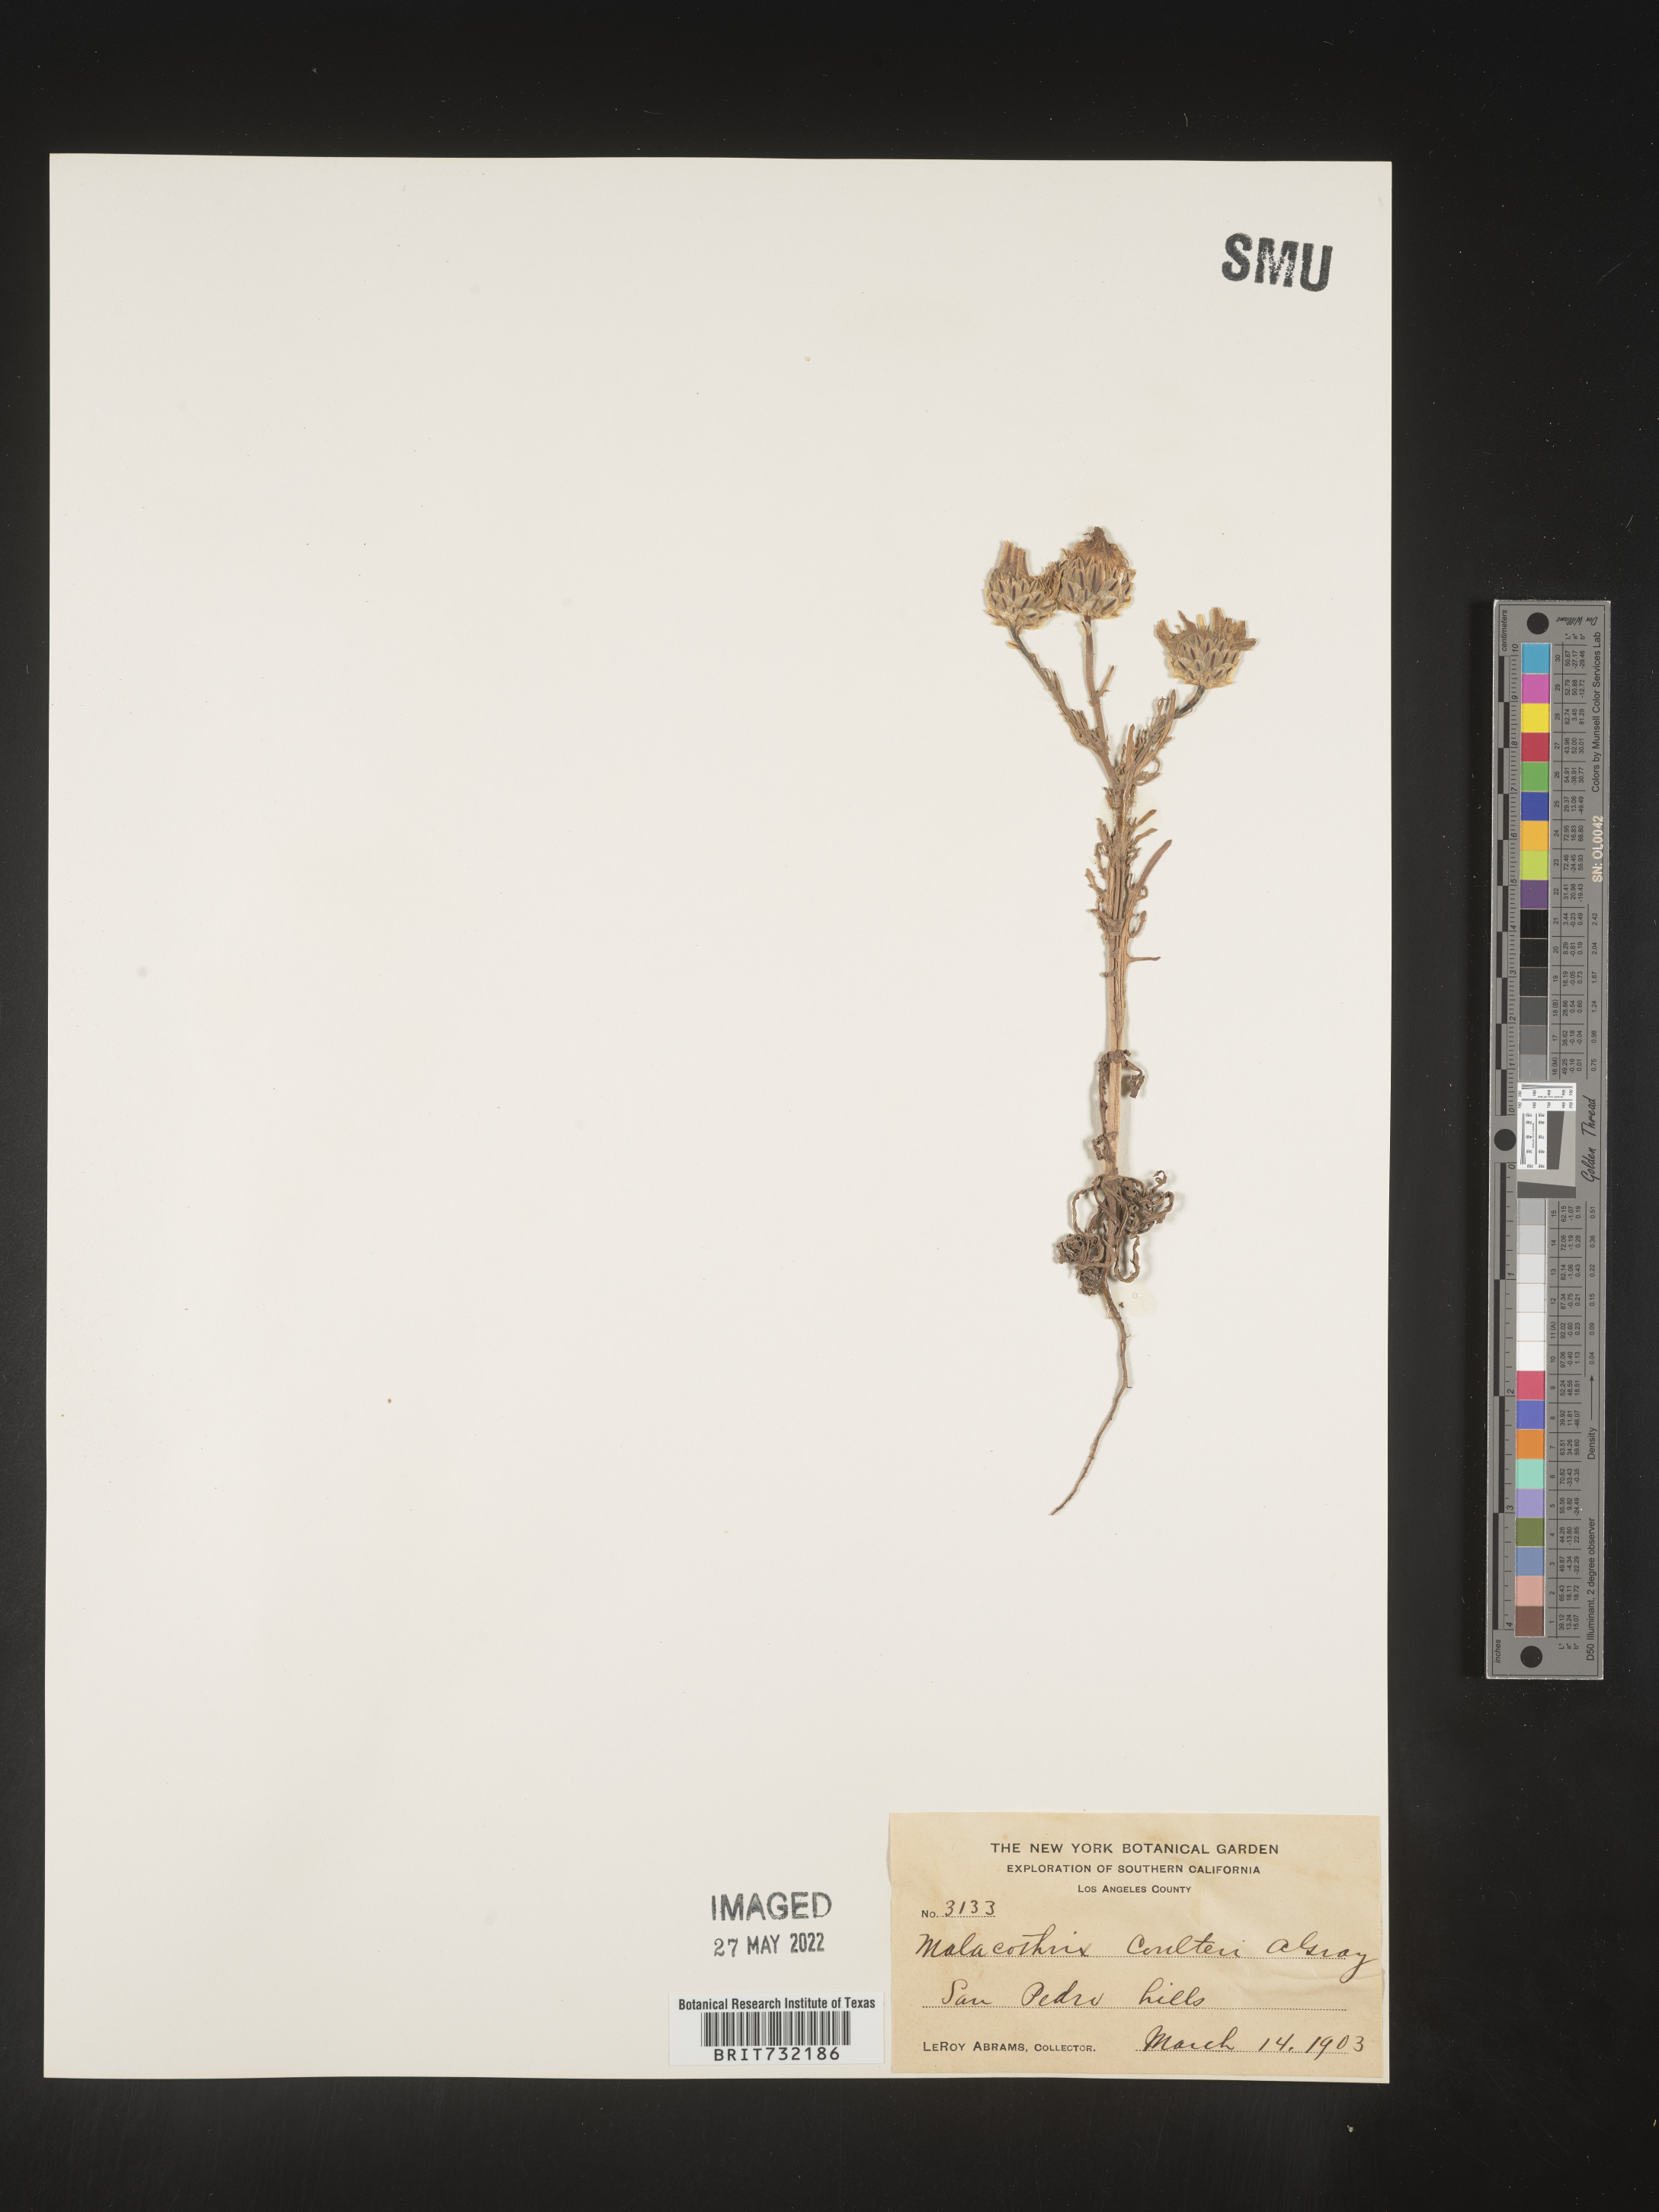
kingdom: Plantae
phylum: Tracheophyta
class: Magnoliopsida
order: Asterales
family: Asteraceae
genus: Malacothrix
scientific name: Malacothrix
